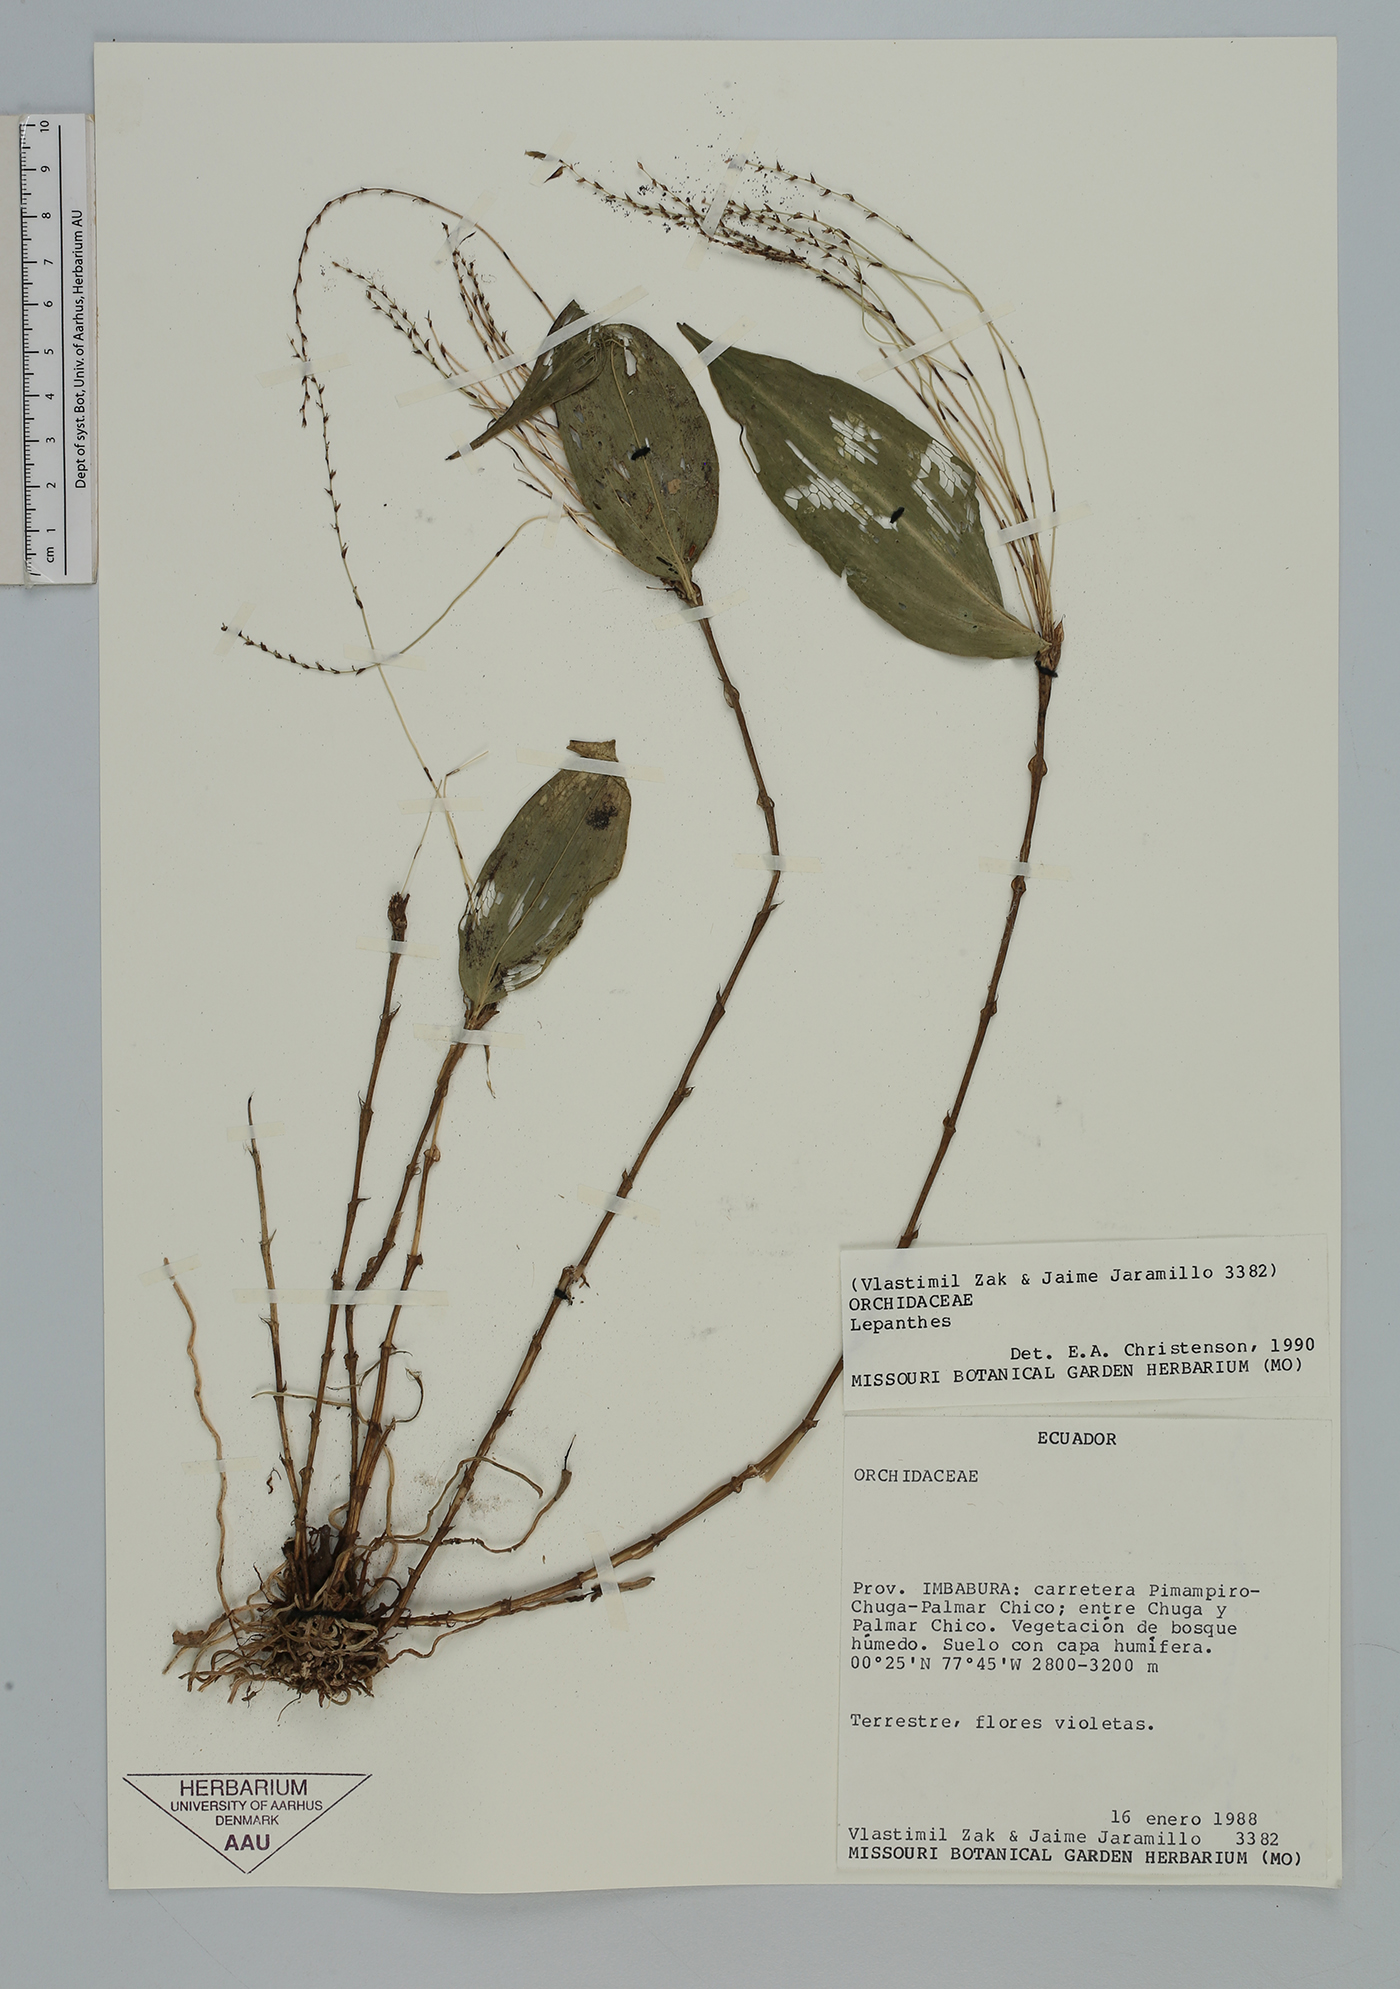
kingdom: Plantae
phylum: Tracheophyta
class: Liliopsida
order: Asparagales
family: Orchidaceae
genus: Lepanthes
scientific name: Lepanthes
